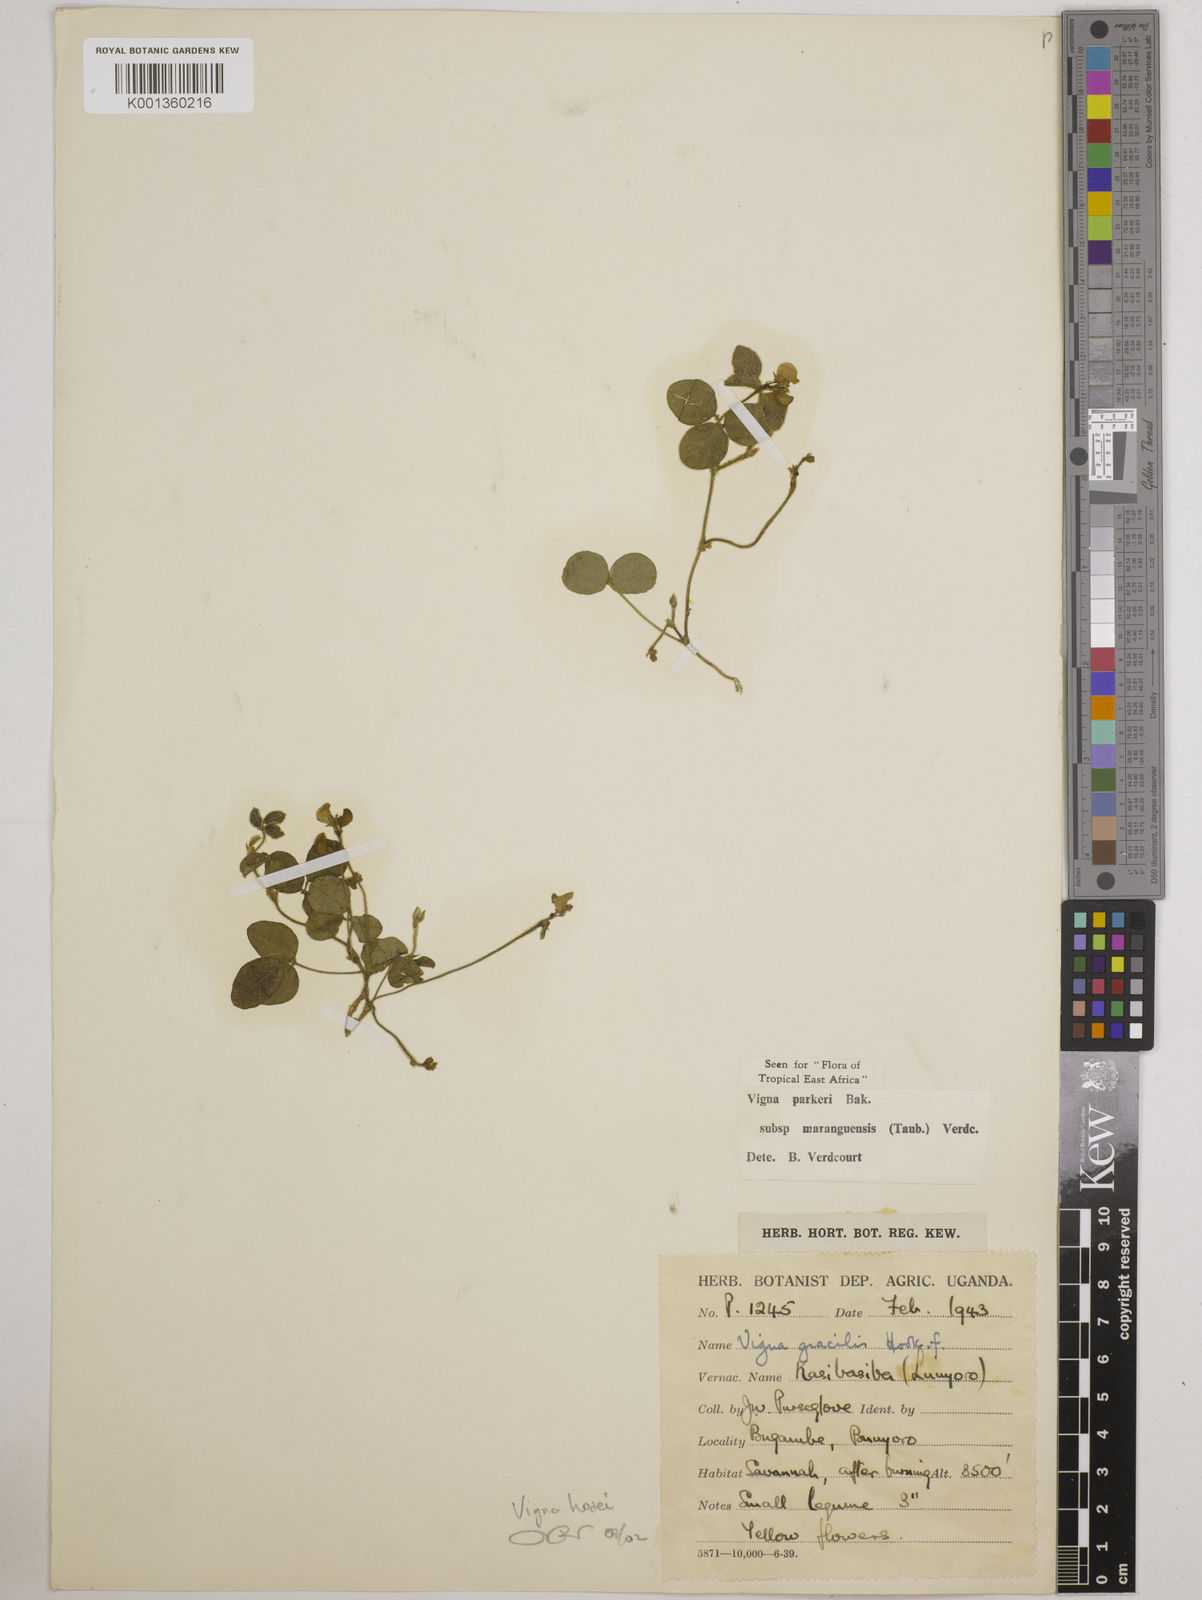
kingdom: Plantae
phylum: Tracheophyta
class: Magnoliopsida
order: Fabales
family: Fabaceae
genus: Vigna
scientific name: Vigna hosei
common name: Sarawak-bean
